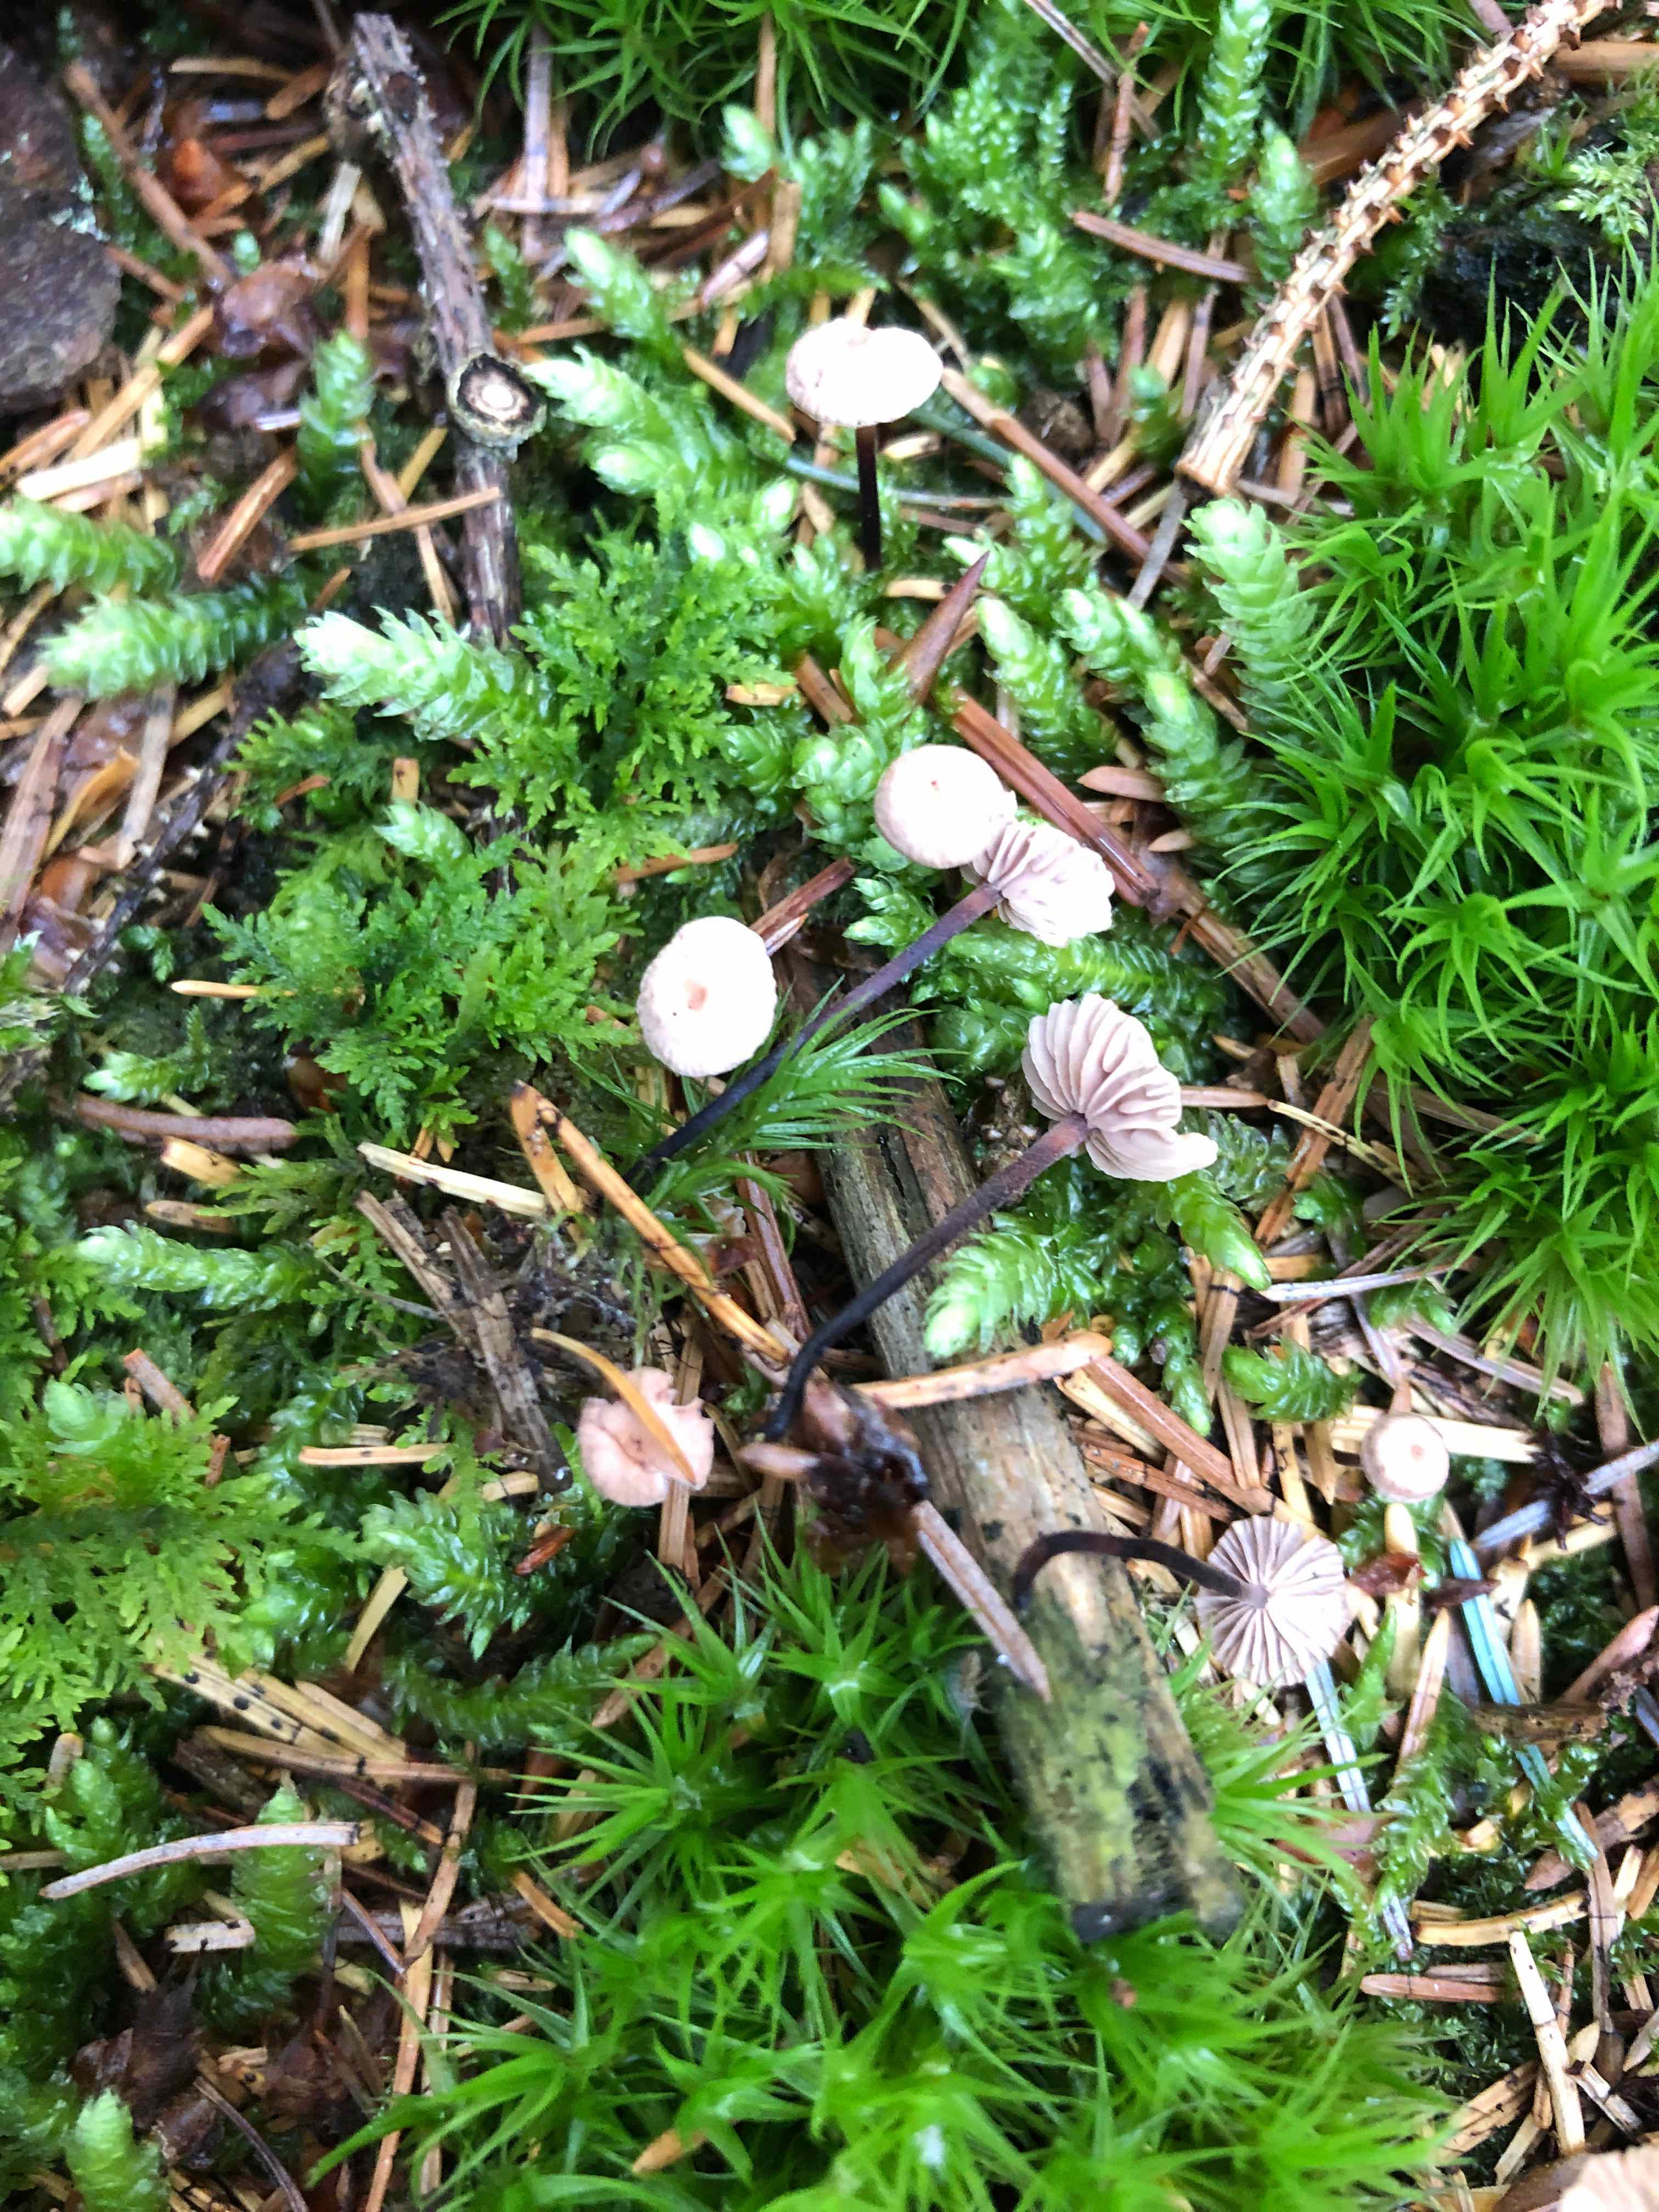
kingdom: Fungi
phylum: Basidiomycota
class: Agaricomycetes
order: Agaricales
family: Omphalotaceae
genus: Paragymnopus
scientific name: Paragymnopus perforans
